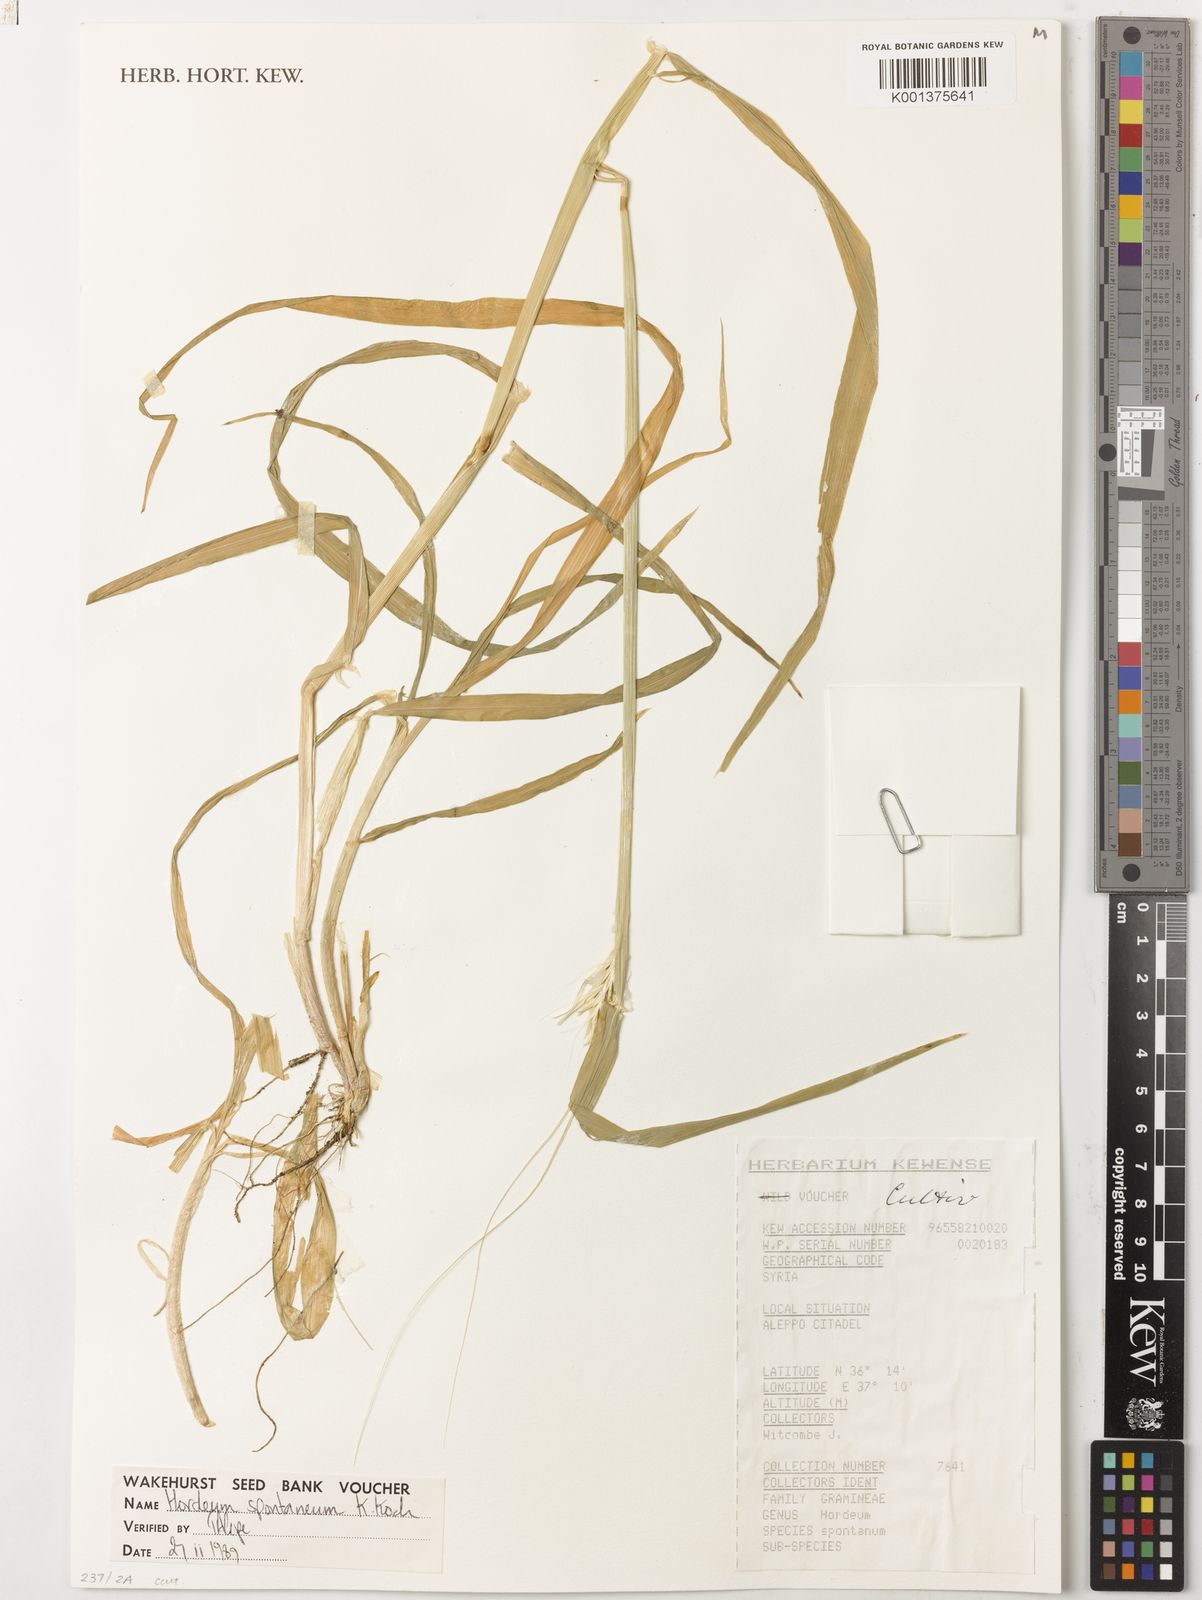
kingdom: Plantae
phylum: Tracheophyta
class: Liliopsida
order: Poales
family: Poaceae
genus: Hordeum
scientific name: Hordeum spontaneum
